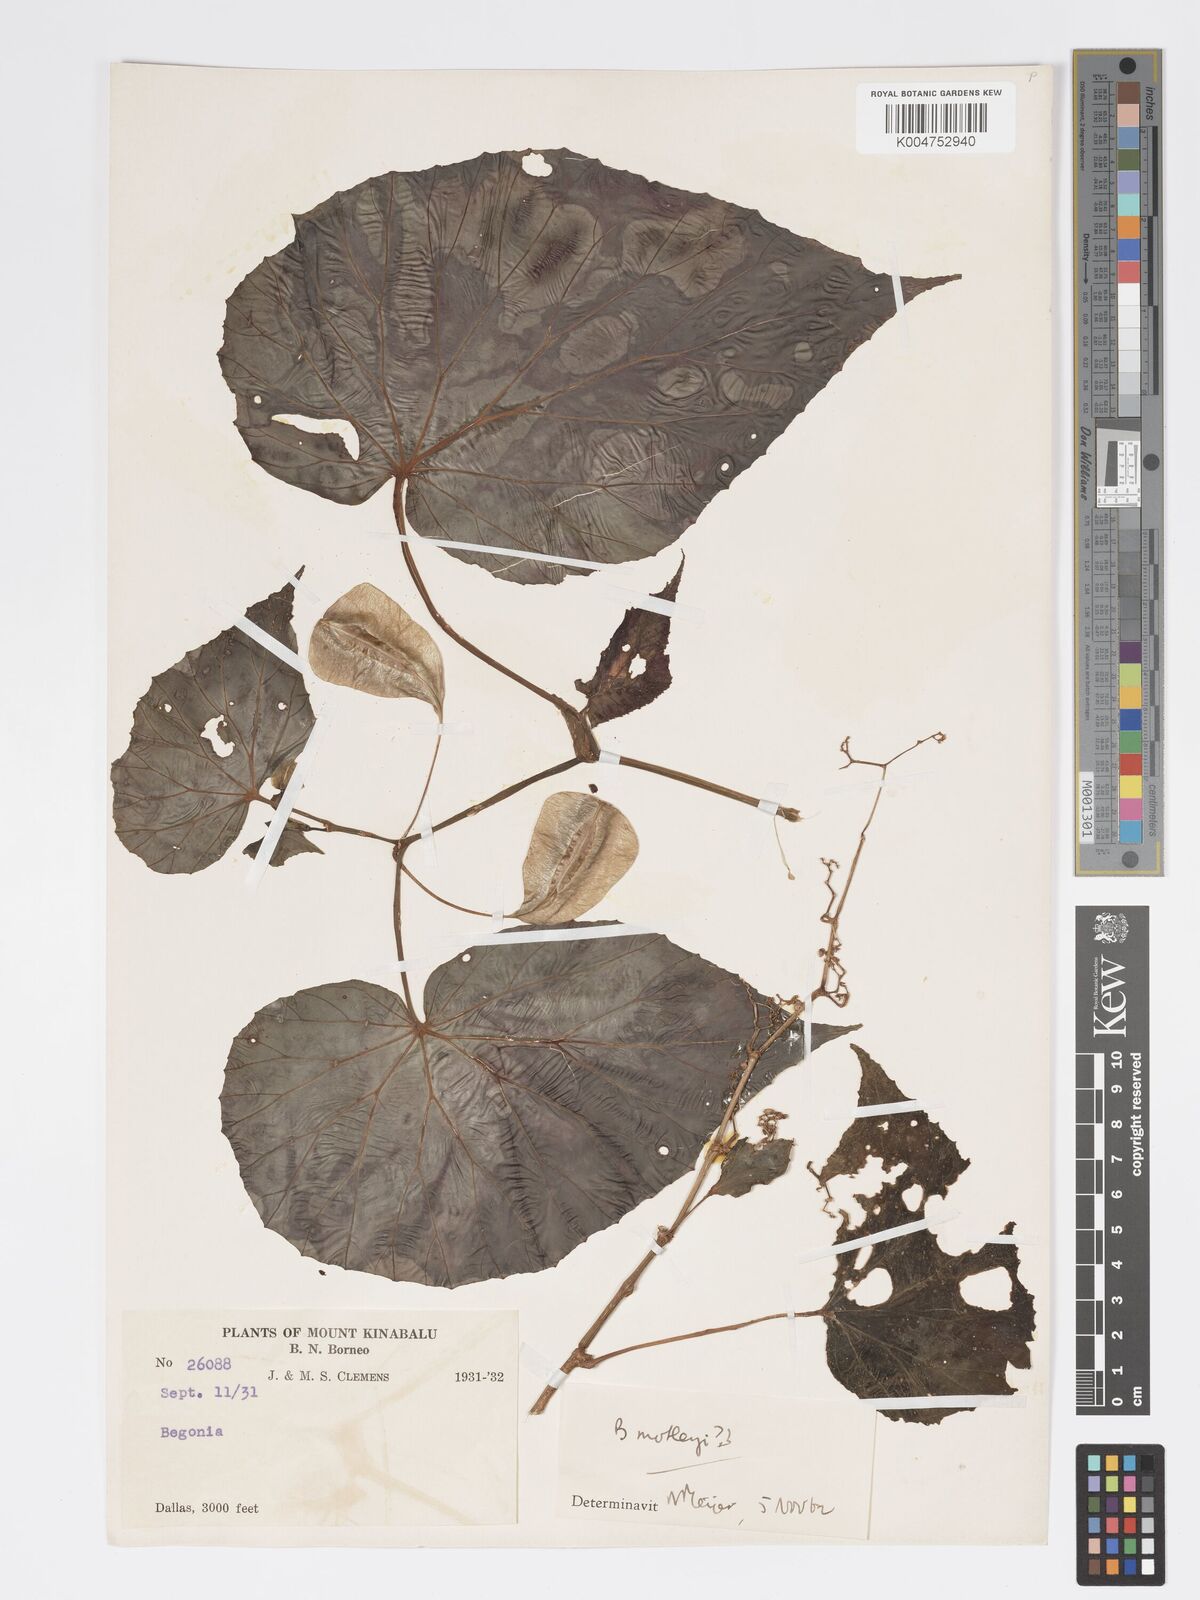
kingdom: Plantae
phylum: Tracheophyta
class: Magnoliopsida
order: Cucurbitales
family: Begoniaceae
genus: Begonia
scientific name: Begonia
